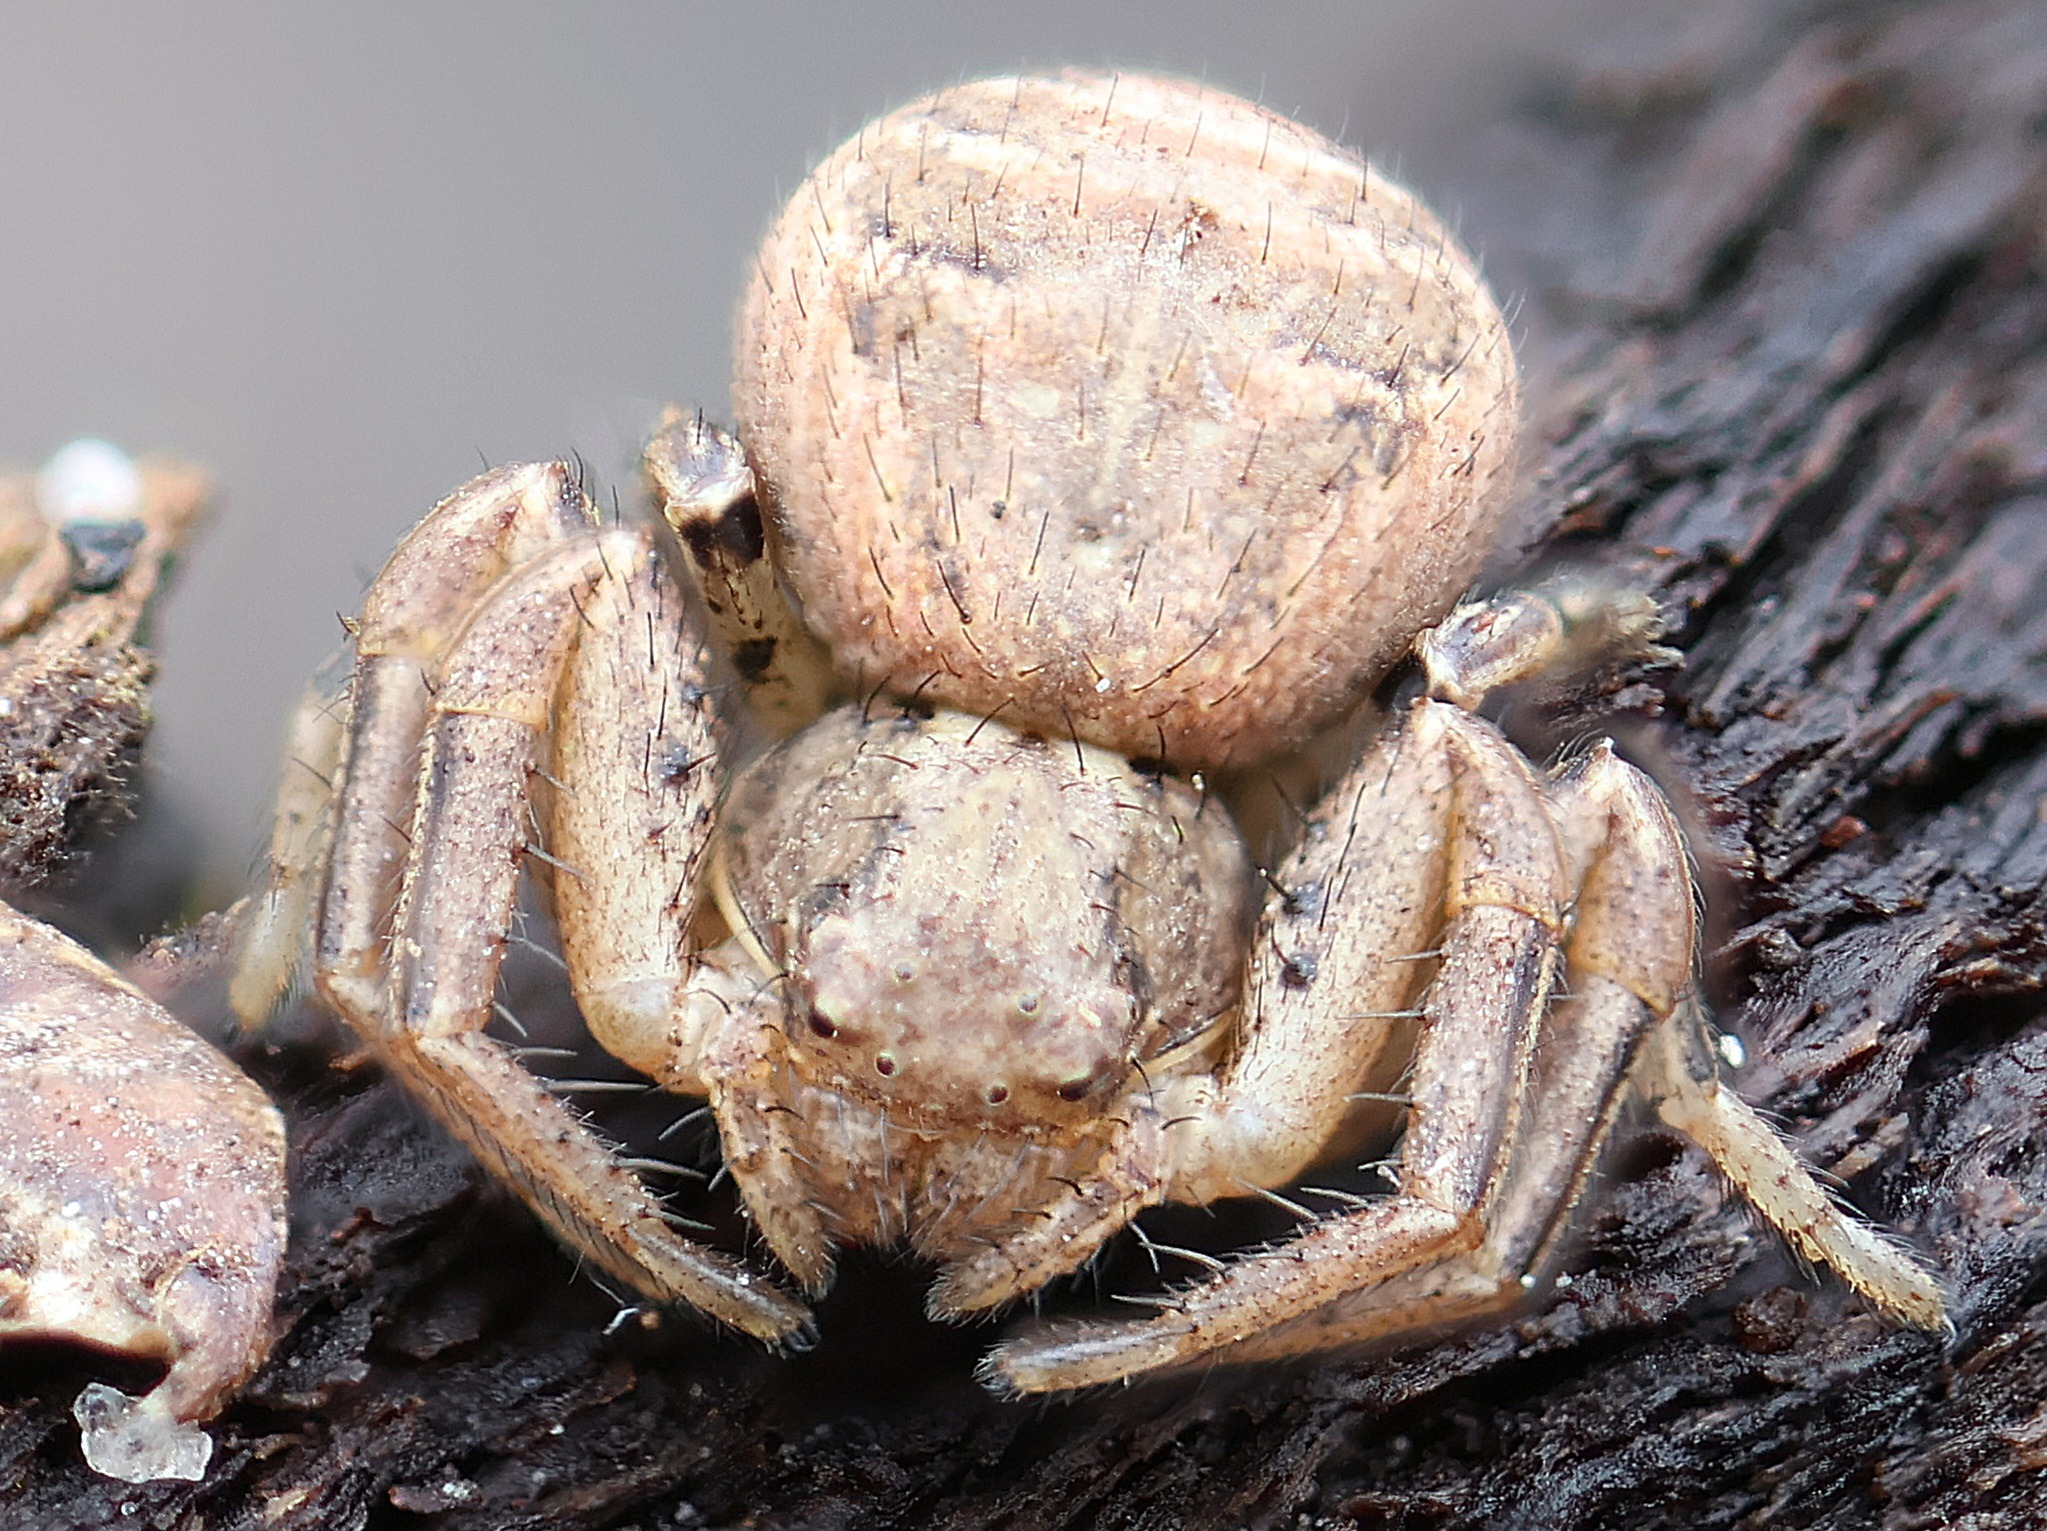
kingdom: Animalia
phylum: Arthropoda
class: Arachnida
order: Araneae
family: Thomisidae
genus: Xysticus
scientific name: Xysticus
